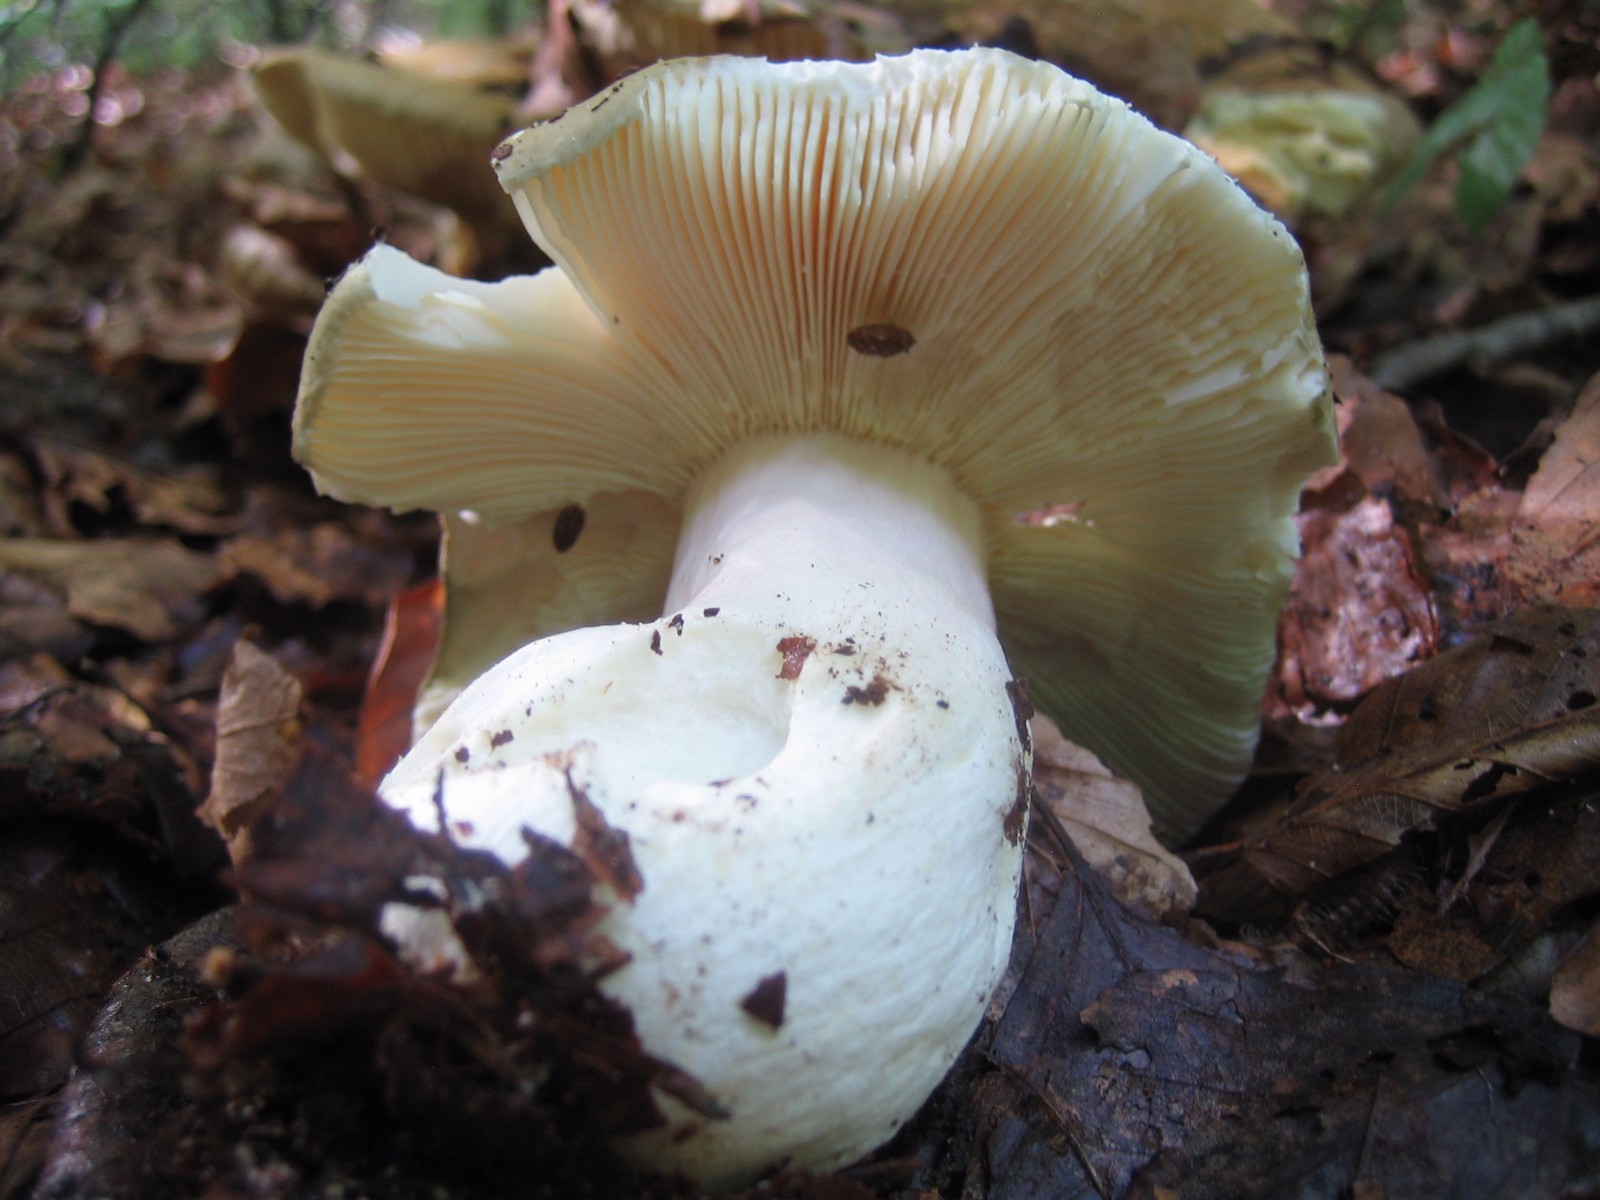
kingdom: Fungi
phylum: Basidiomycota
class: Agaricomycetes
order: Russulales
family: Russulaceae
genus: Russula
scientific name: Russula olivacea
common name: stor skørhat
